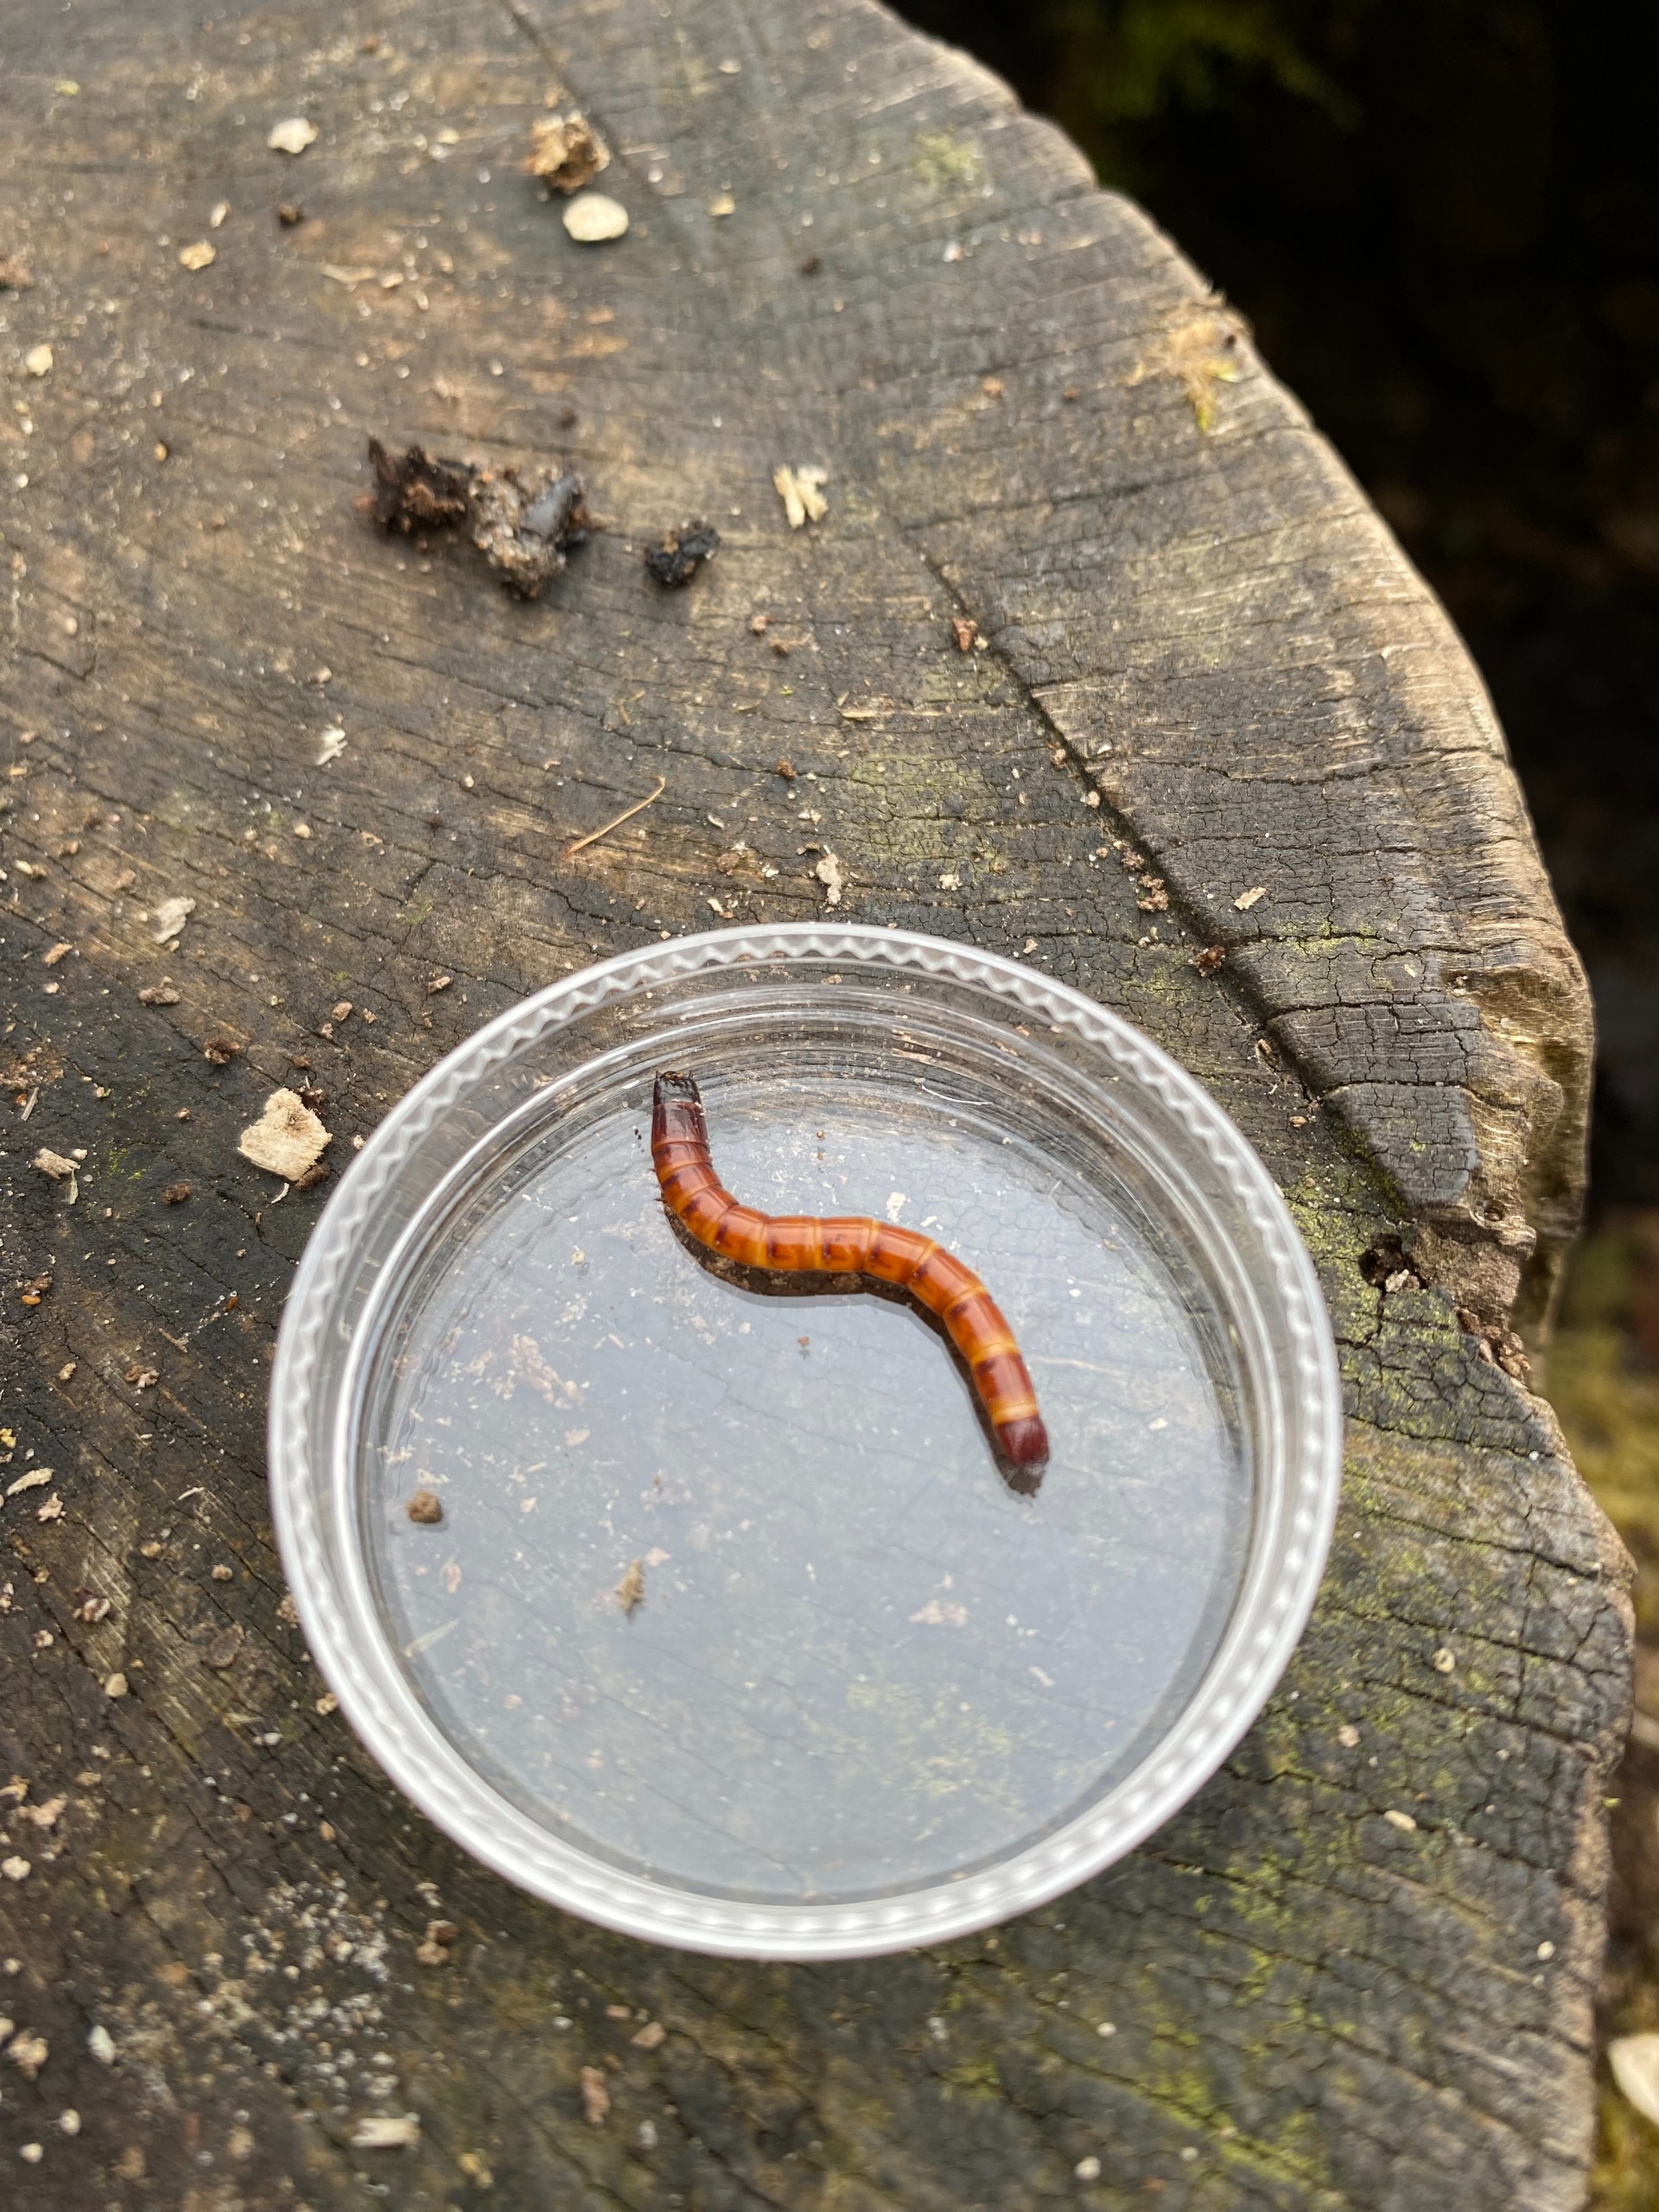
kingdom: Animalia
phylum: Arthropoda
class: Insecta
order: Coleoptera
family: Elateridae
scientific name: Elateridae
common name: Smældere
